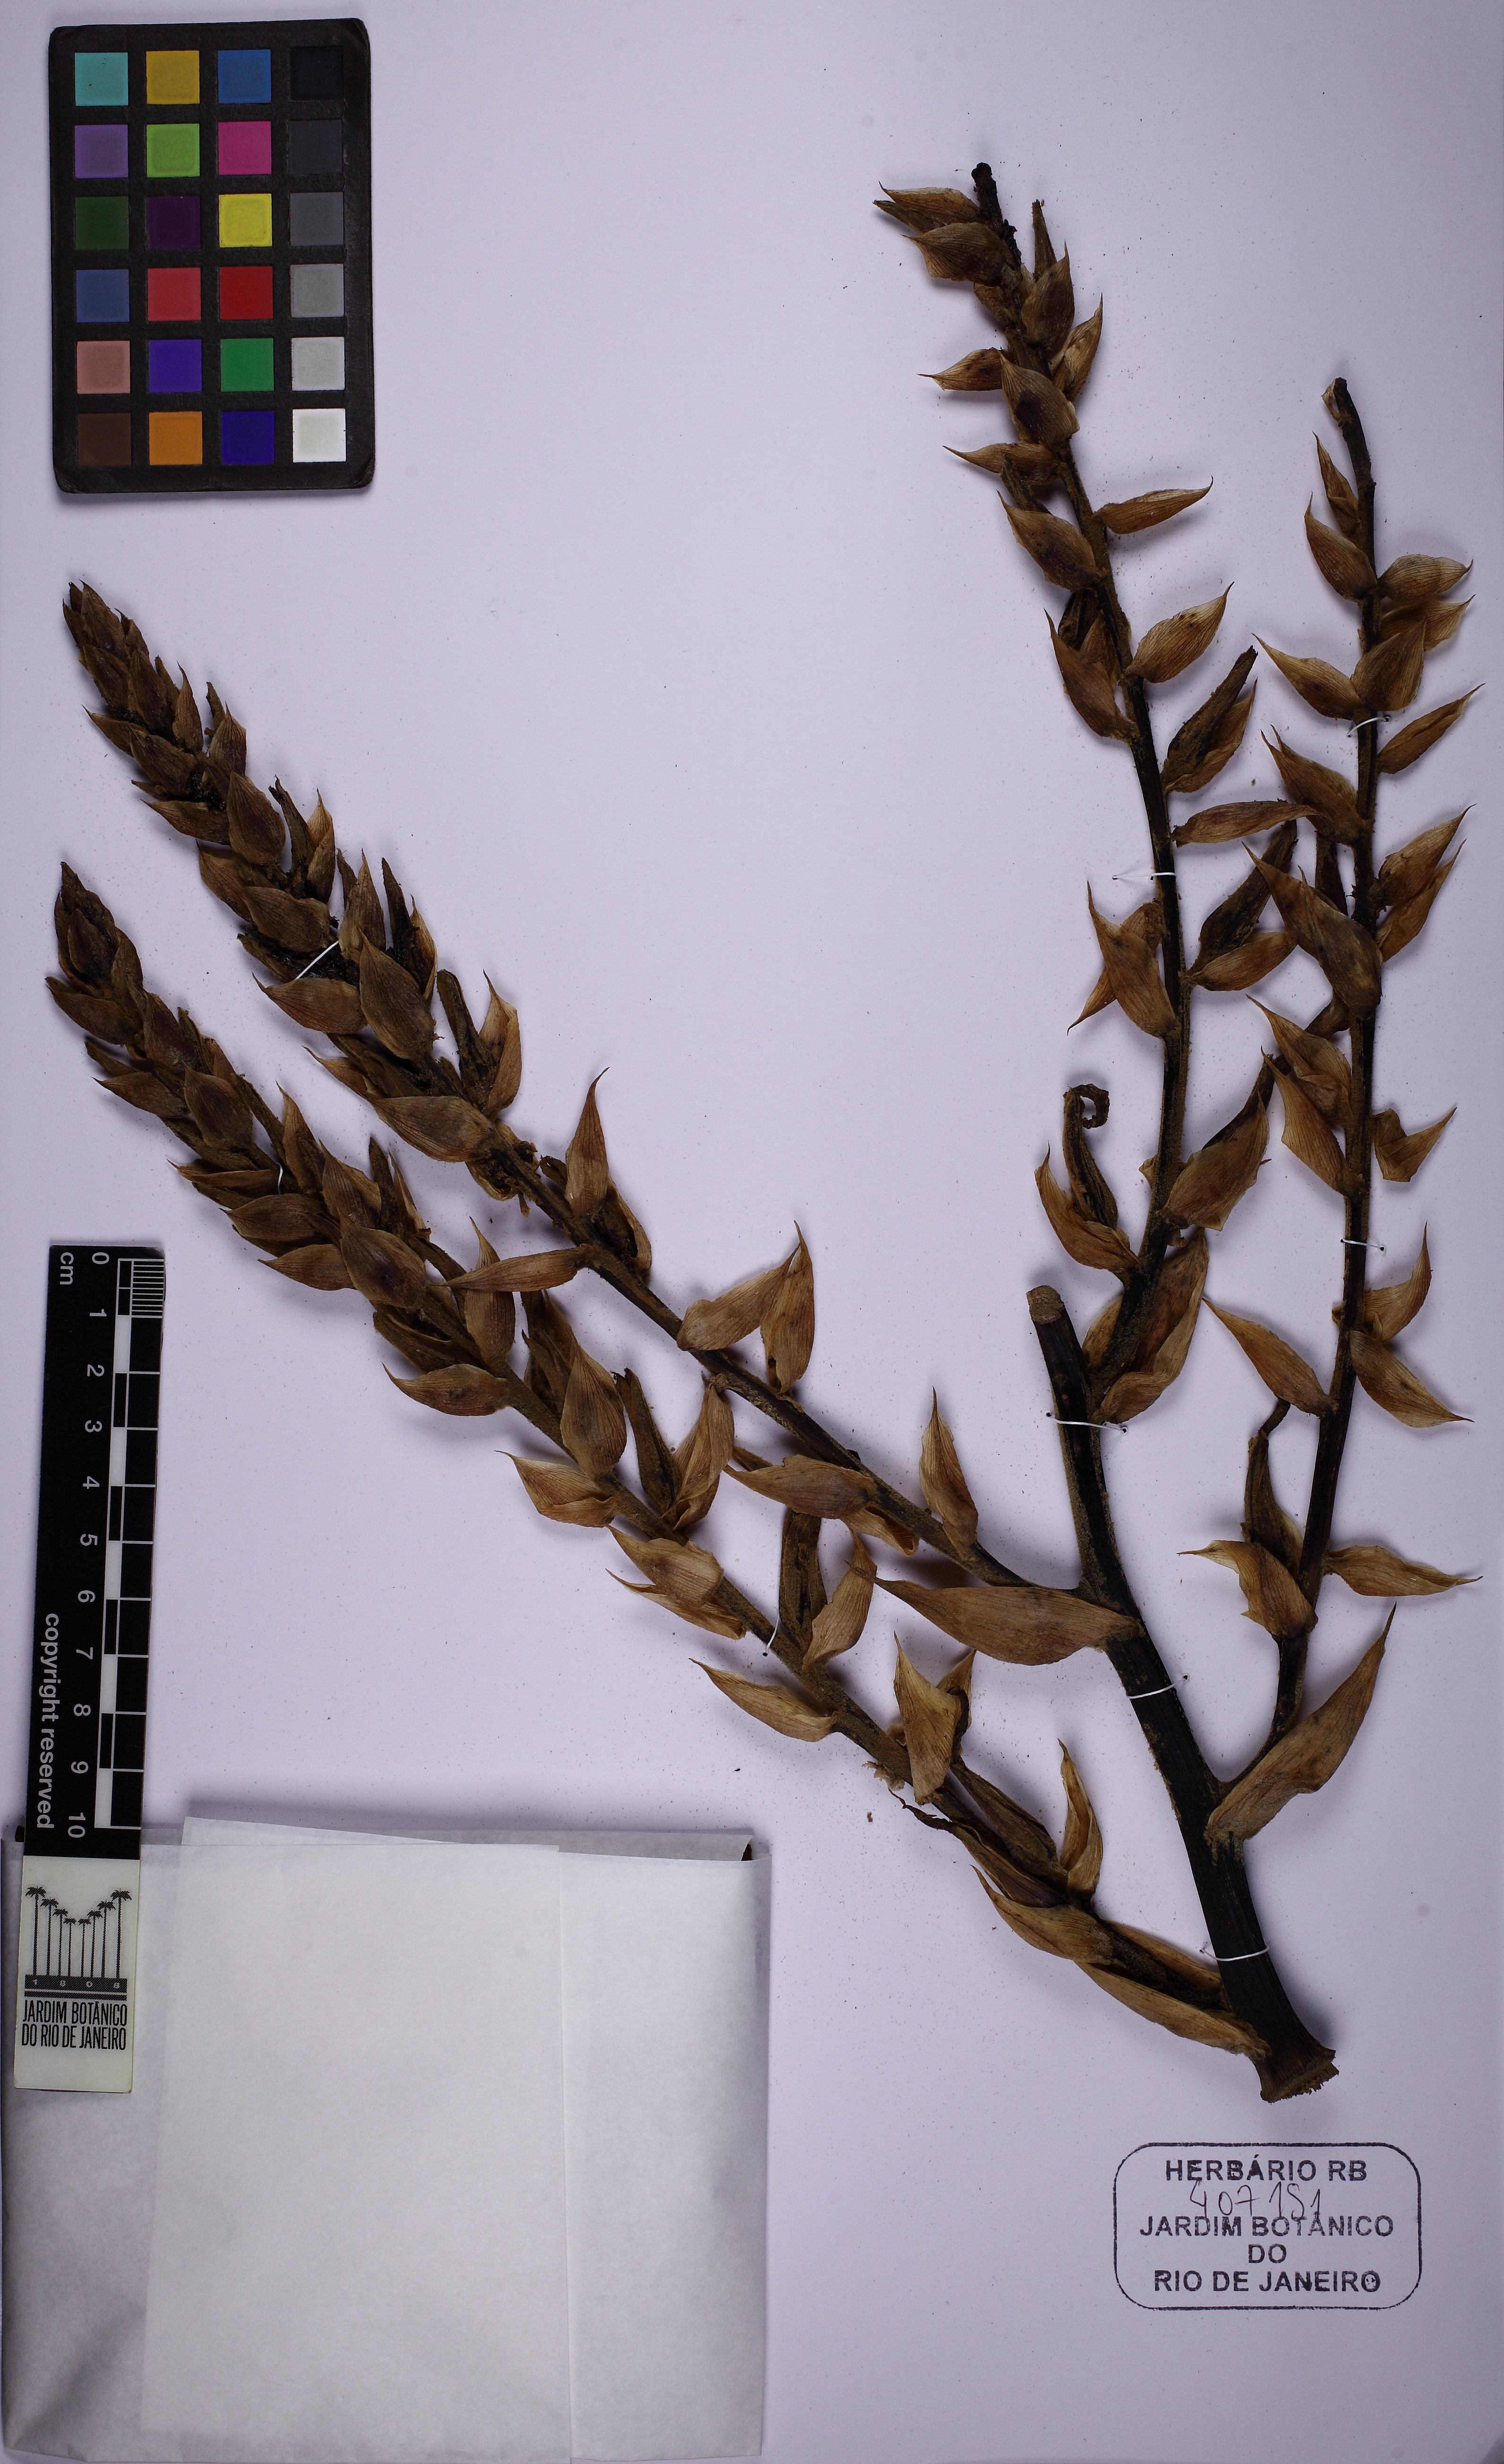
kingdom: Plantae
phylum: Tracheophyta
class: Liliopsida
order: Poales
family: Bromeliaceae
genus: Puya
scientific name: Puya
